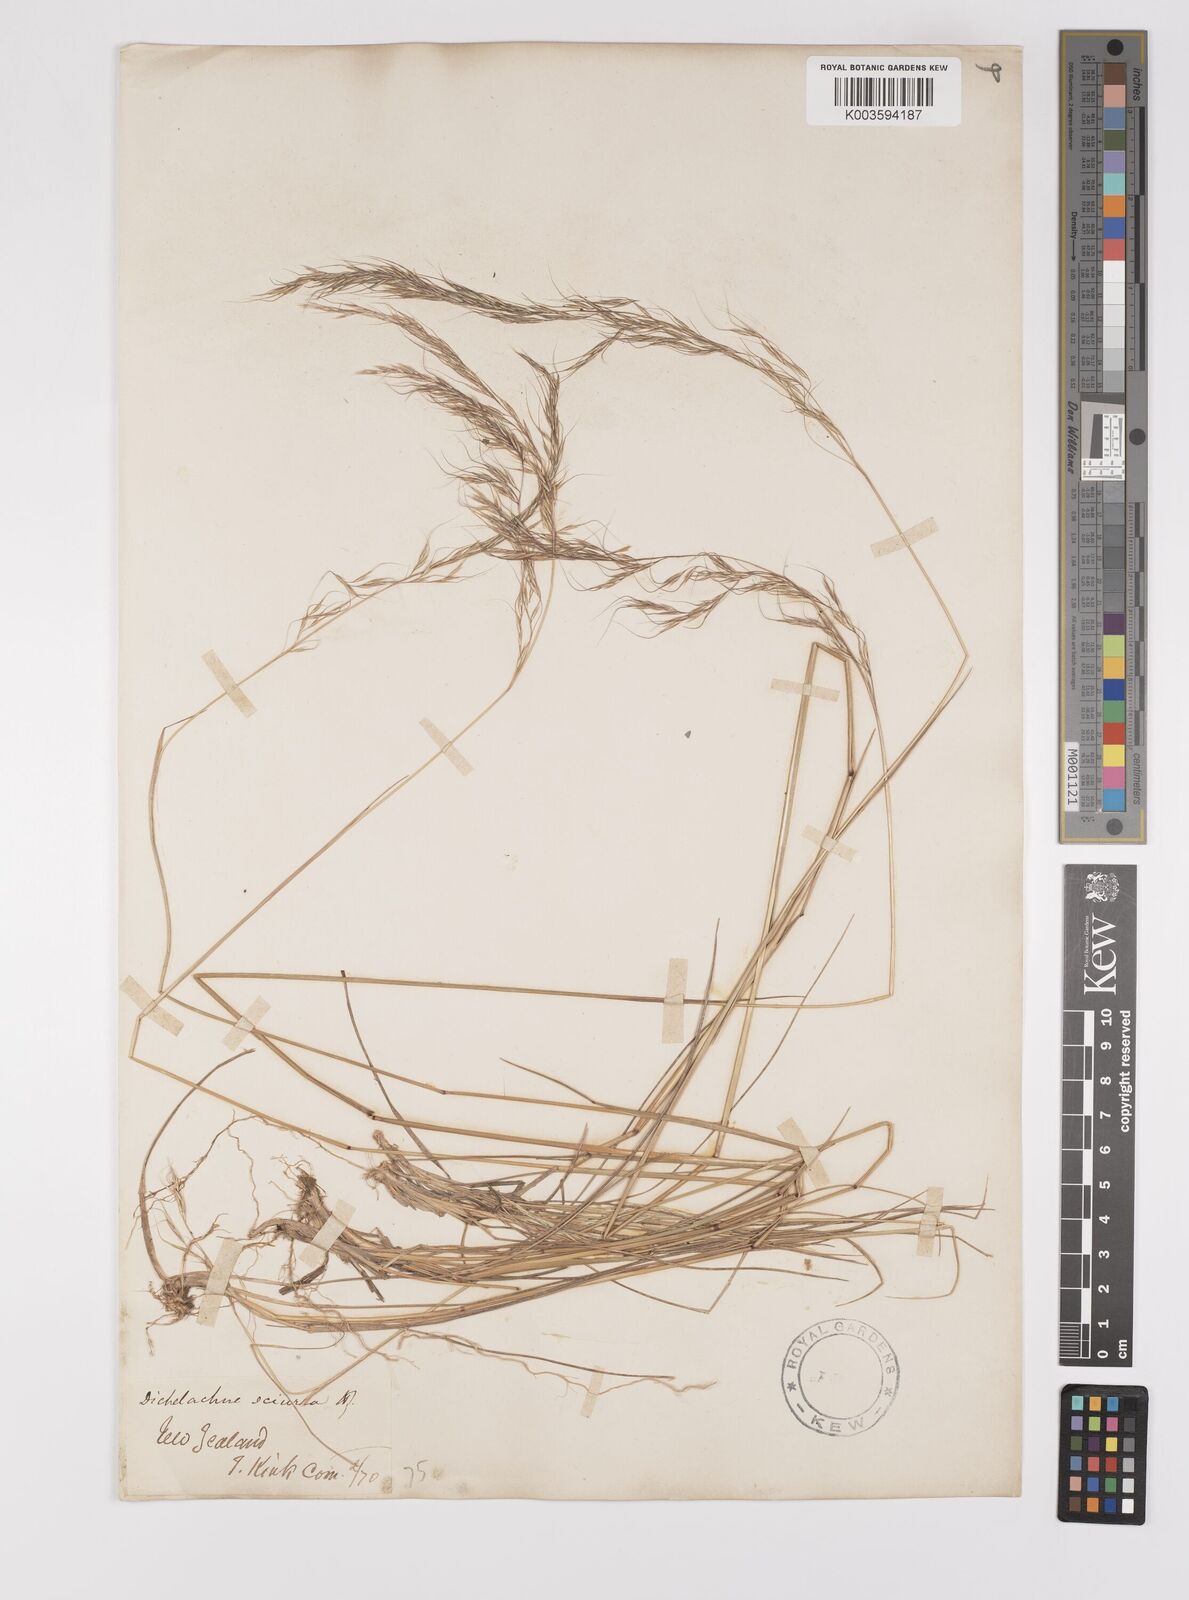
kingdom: Plantae
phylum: Tracheophyta
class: Liliopsida
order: Poales
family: Poaceae
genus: Dichelachne
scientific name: Dichelachne rara
